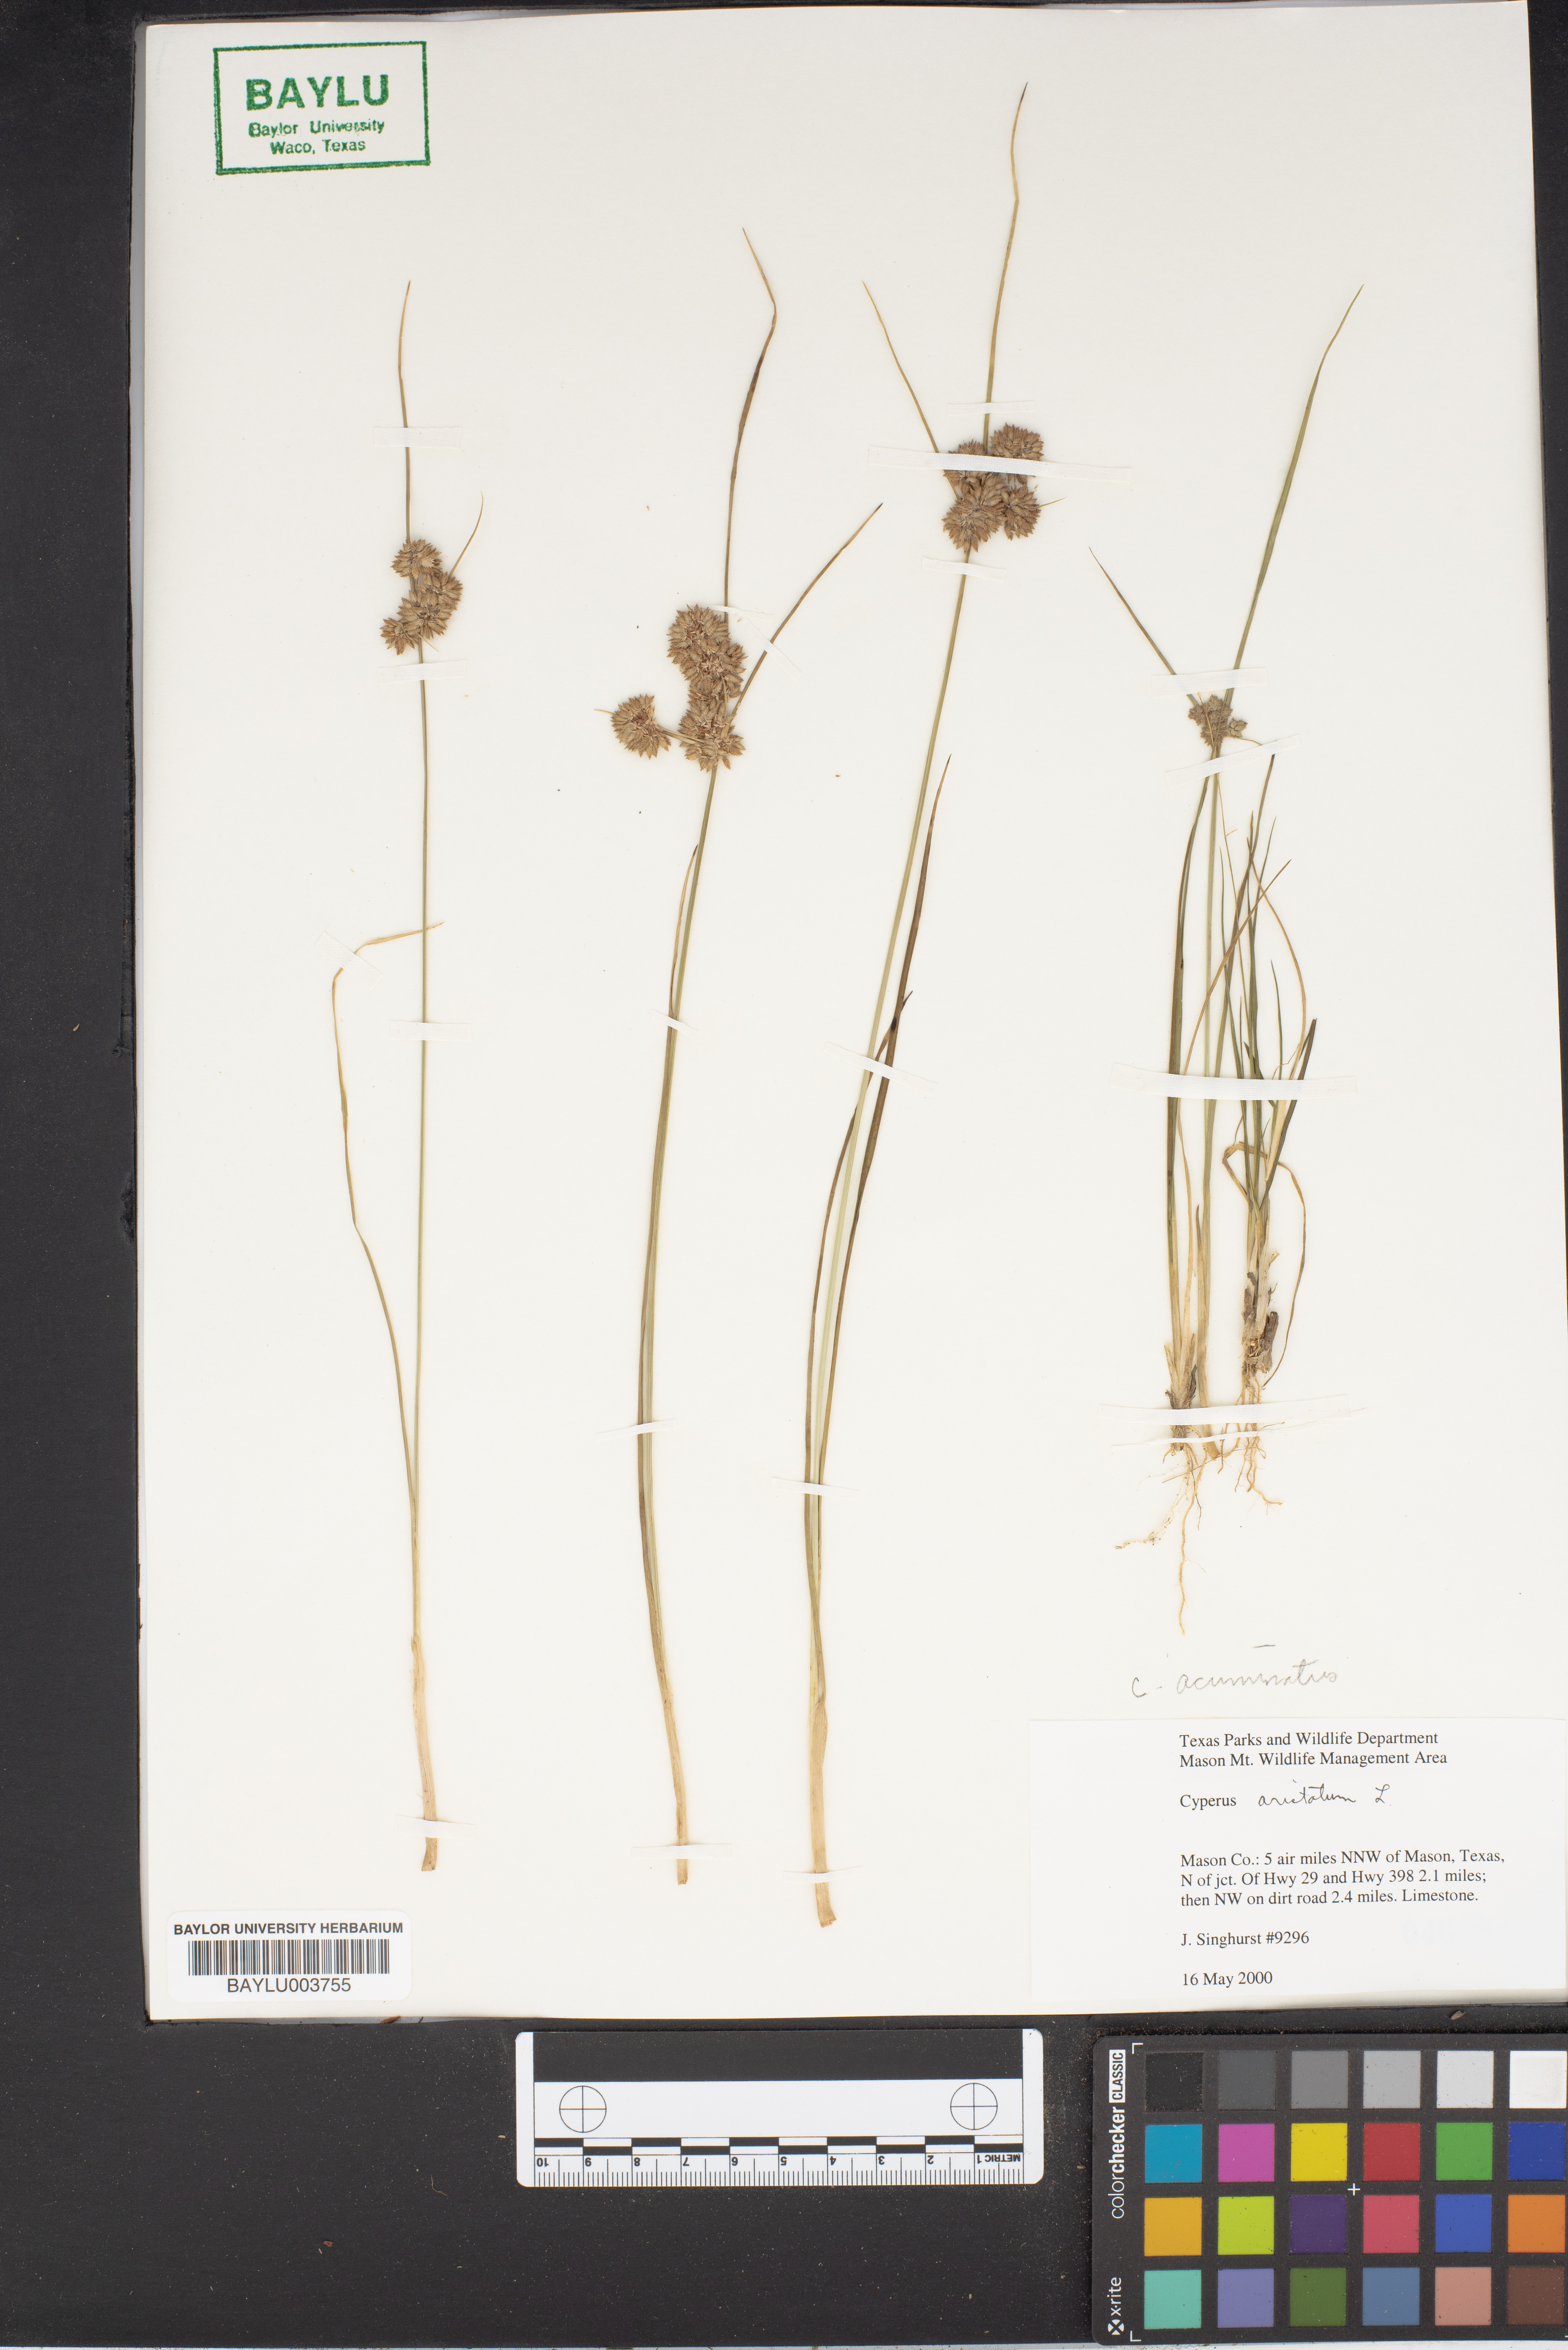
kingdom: Plantae
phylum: Tracheophyta
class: Liliopsida
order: Poales
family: Cyperaceae
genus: Cyperus
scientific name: Cyperus acuminatus
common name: Short-pointed cyperus
